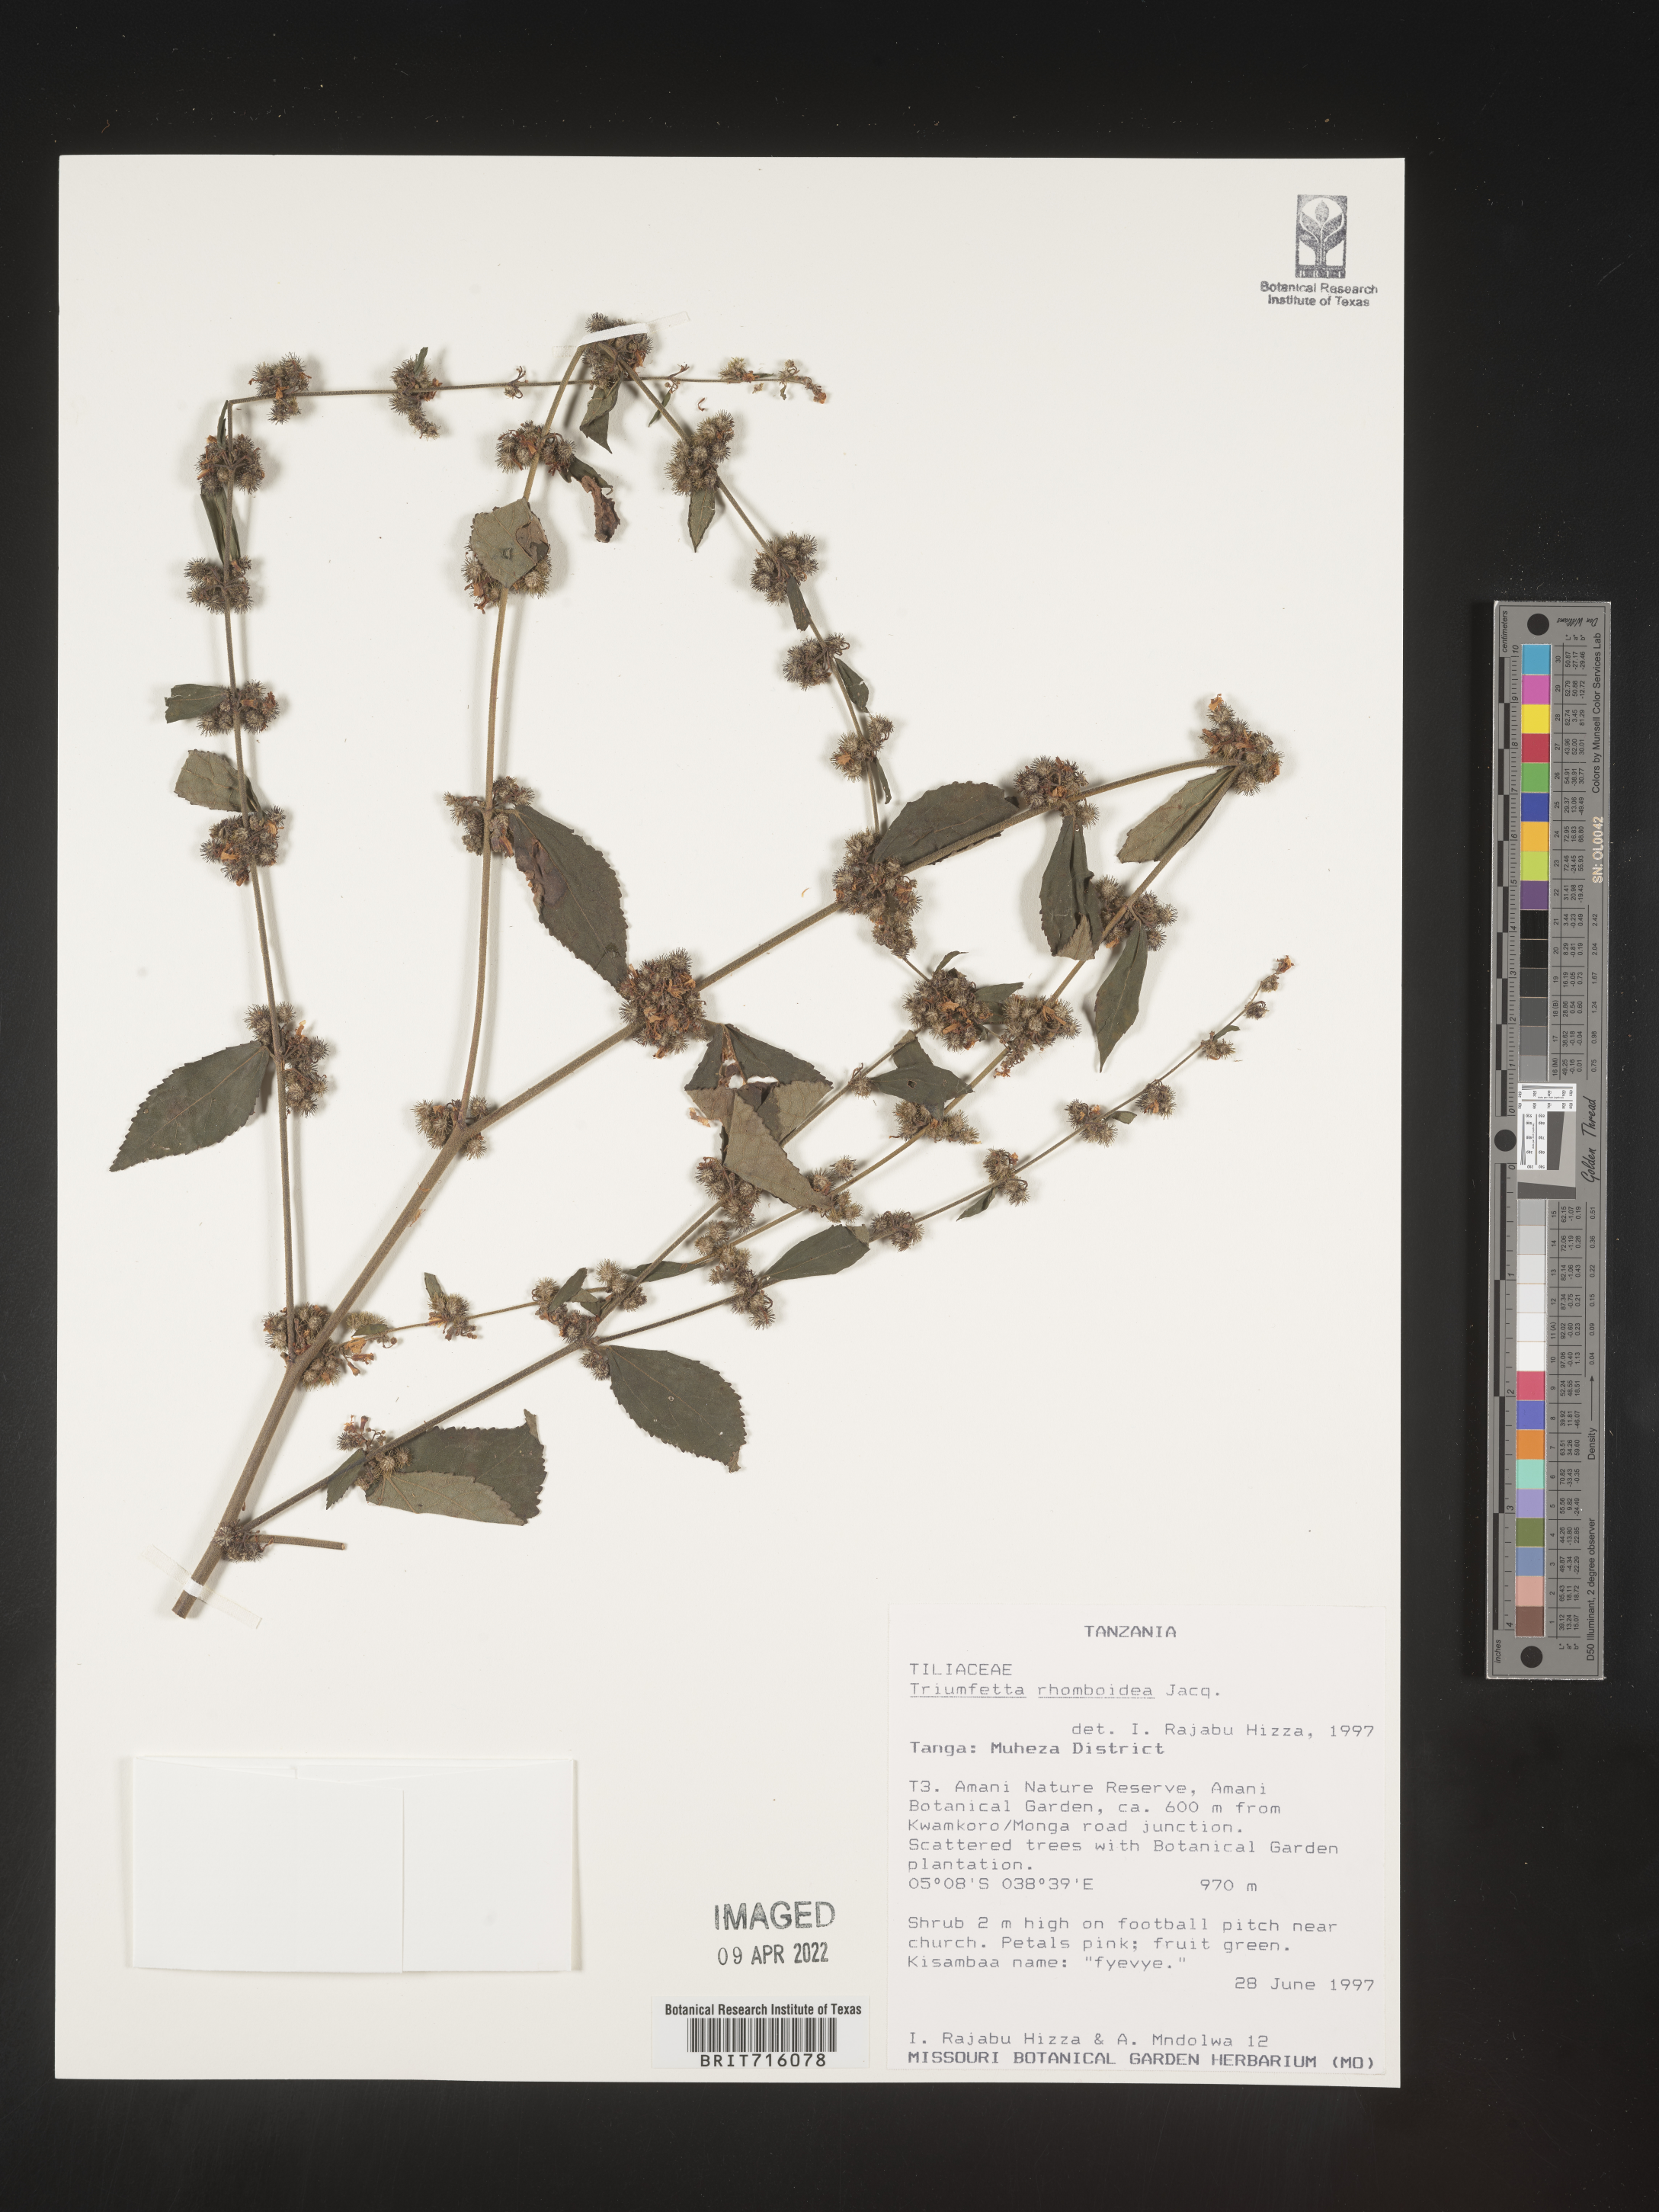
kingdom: Plantae
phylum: Tracheophyta
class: Magnoliopsida
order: Malvales
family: Malvaceae
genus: Triumfetta
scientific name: Triumfetta rhomboidea
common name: Diamond burbark
